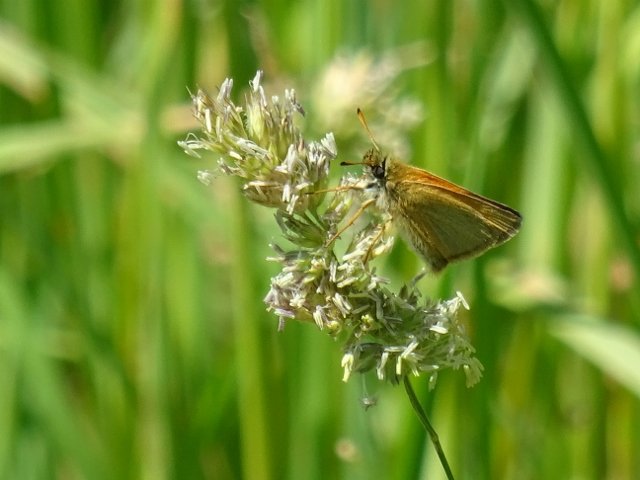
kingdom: Animalia
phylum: Arthropoda
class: Insecta
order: Lepidoptera
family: Hesperiidae
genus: Thymelicus
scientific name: Thymelicus lineola
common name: European Skipper
